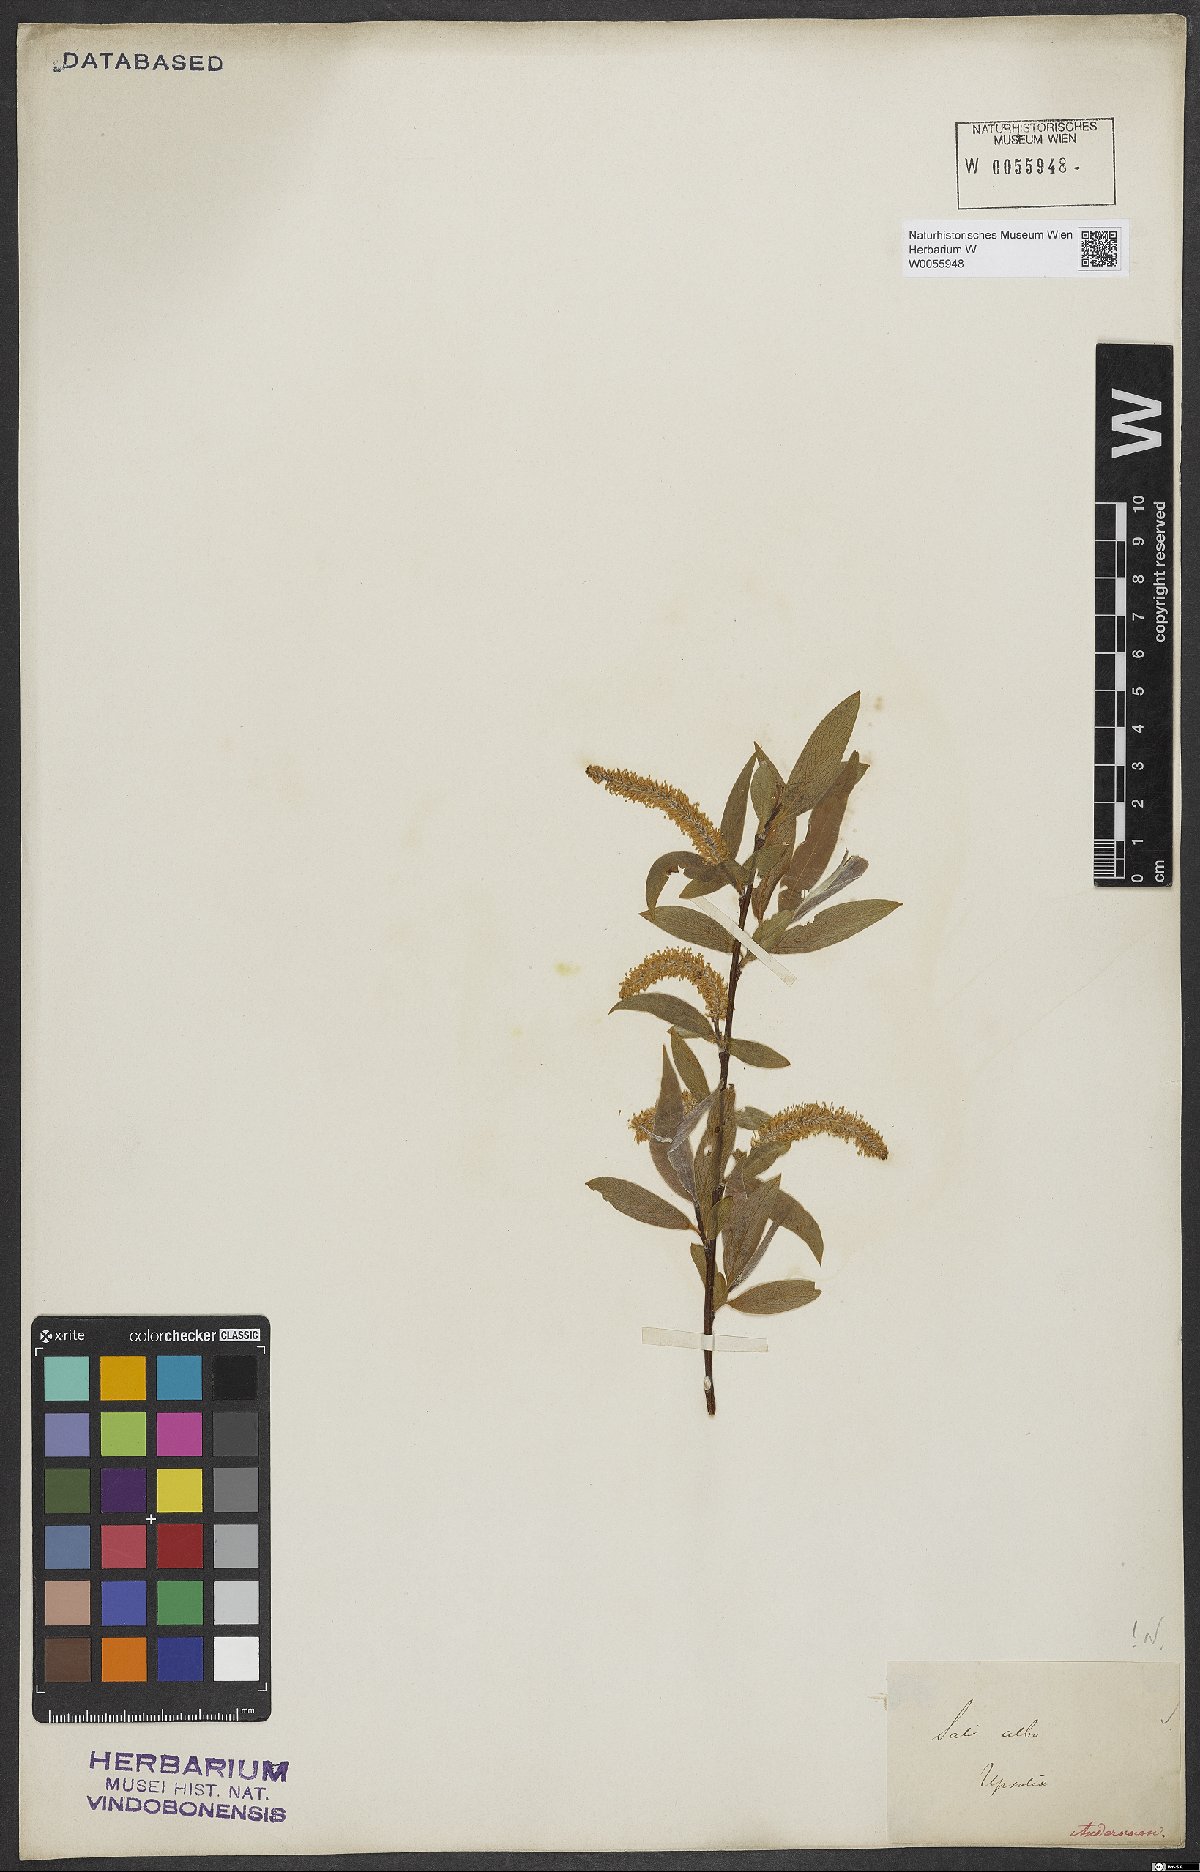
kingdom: Plantae
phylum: Tracheophyta
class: Magnoliopsida
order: Malpighiales
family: Salicaceae
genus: Salix
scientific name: Salix alba
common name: White willow
